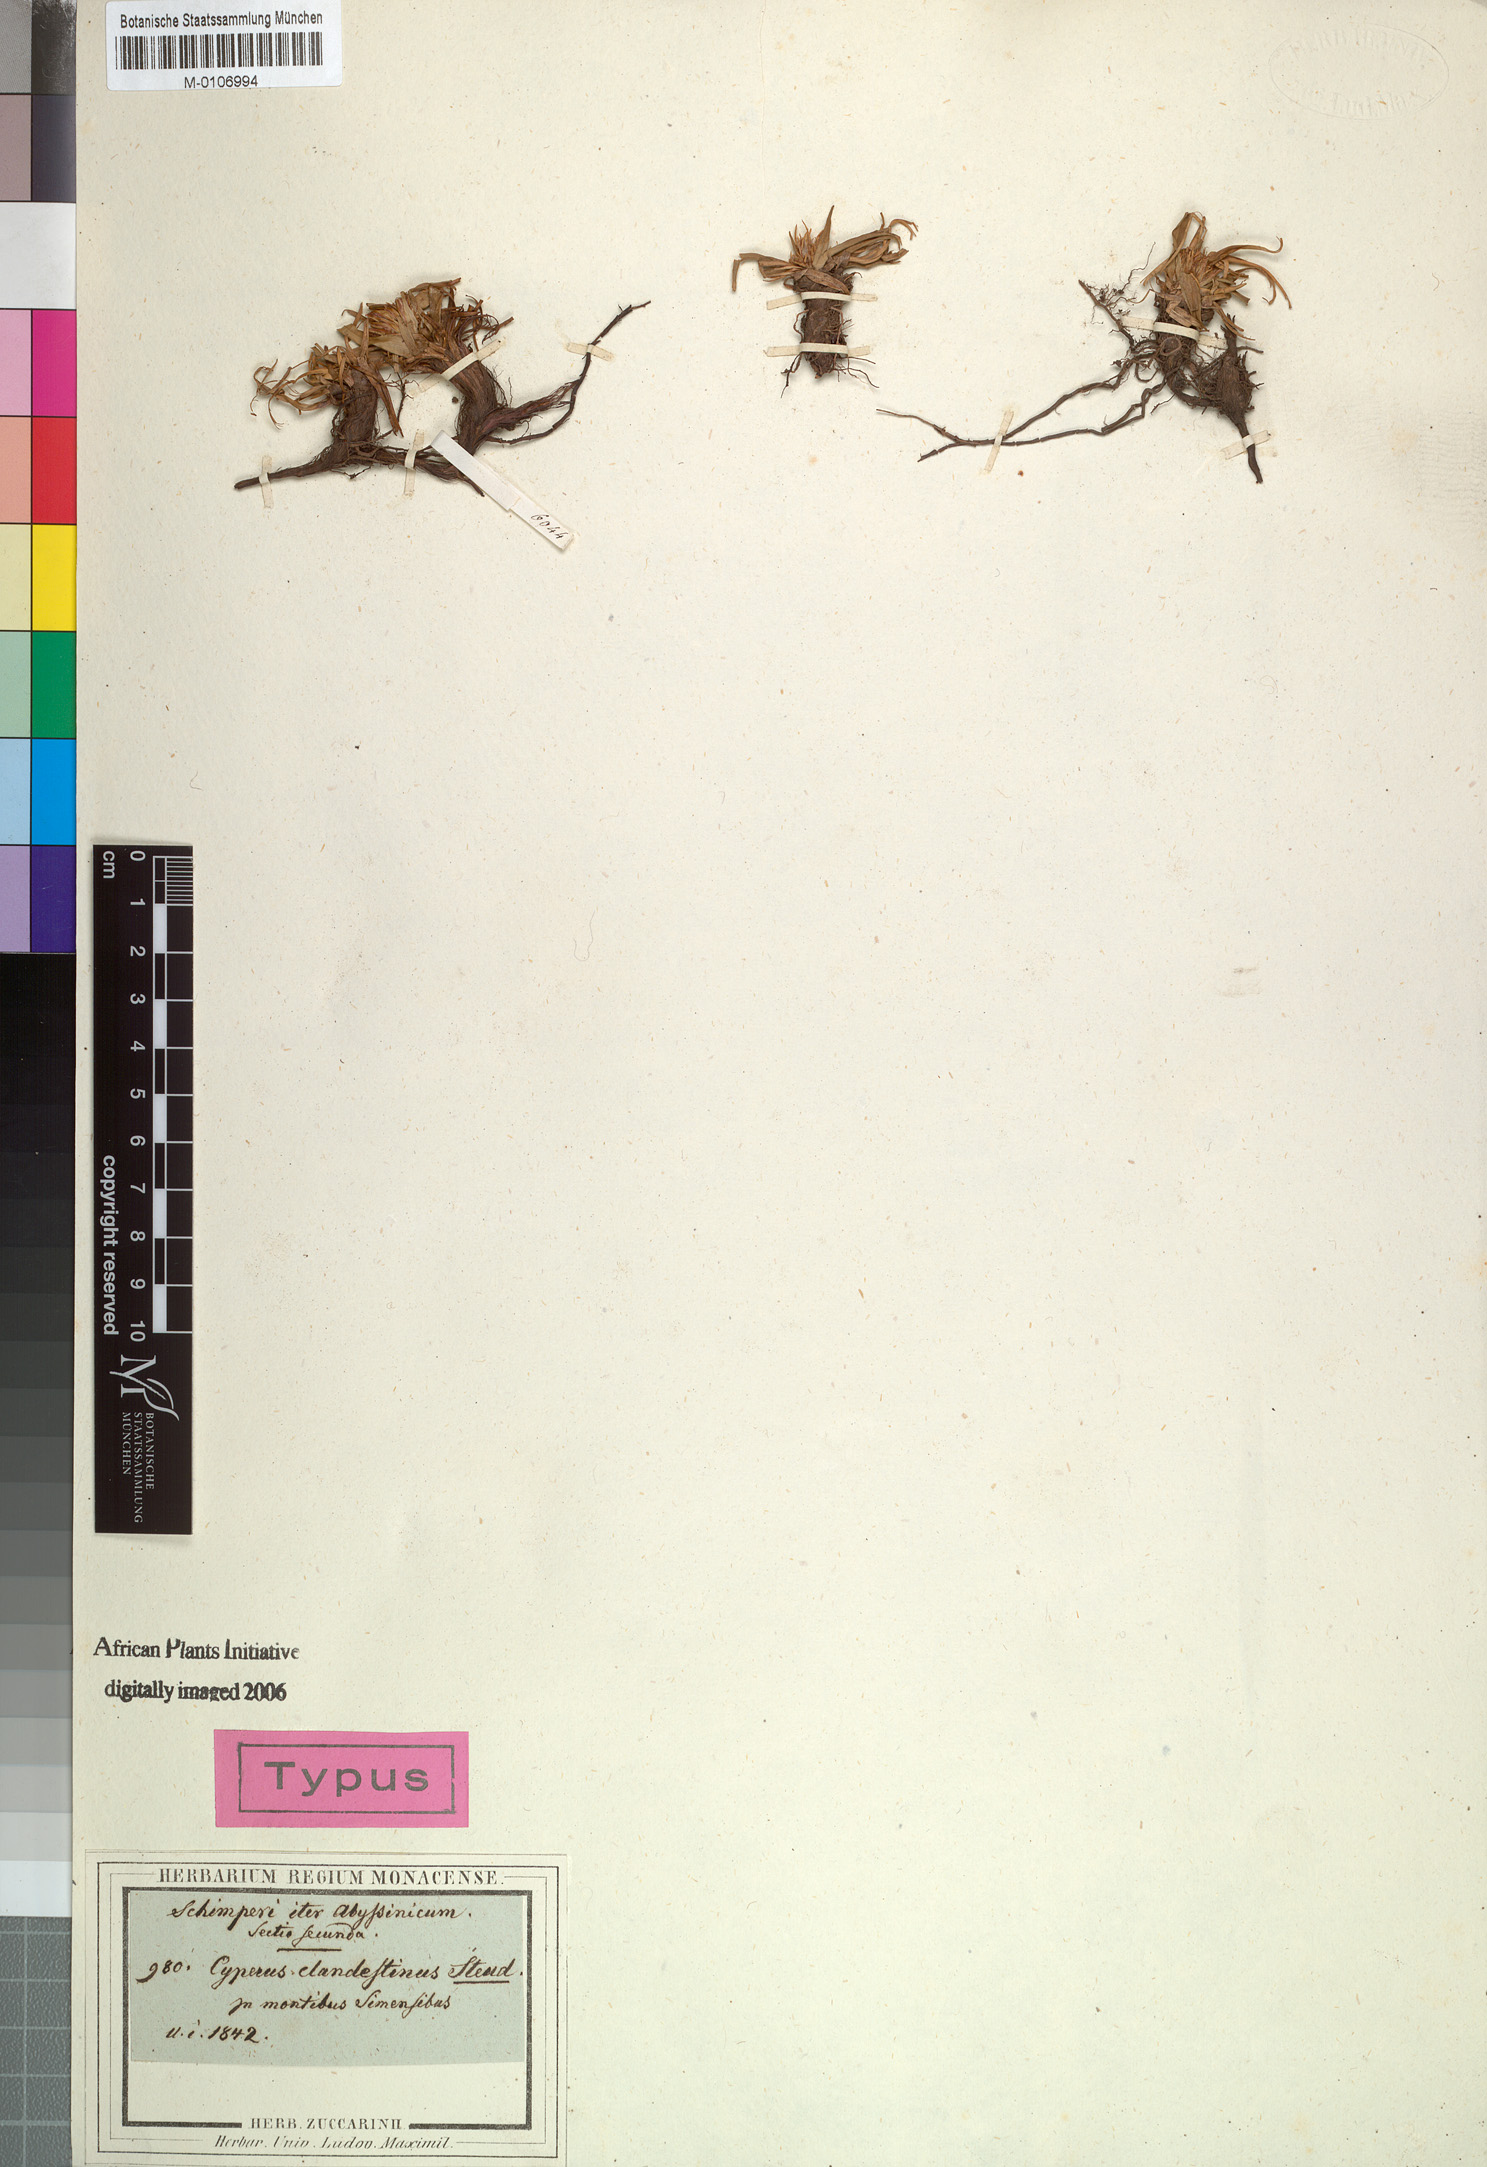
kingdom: Plantae
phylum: Tracheophyta
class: Liliopsida
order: Poales
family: Cyperaceae
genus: Cyperus
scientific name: Cyperus clandestinus
